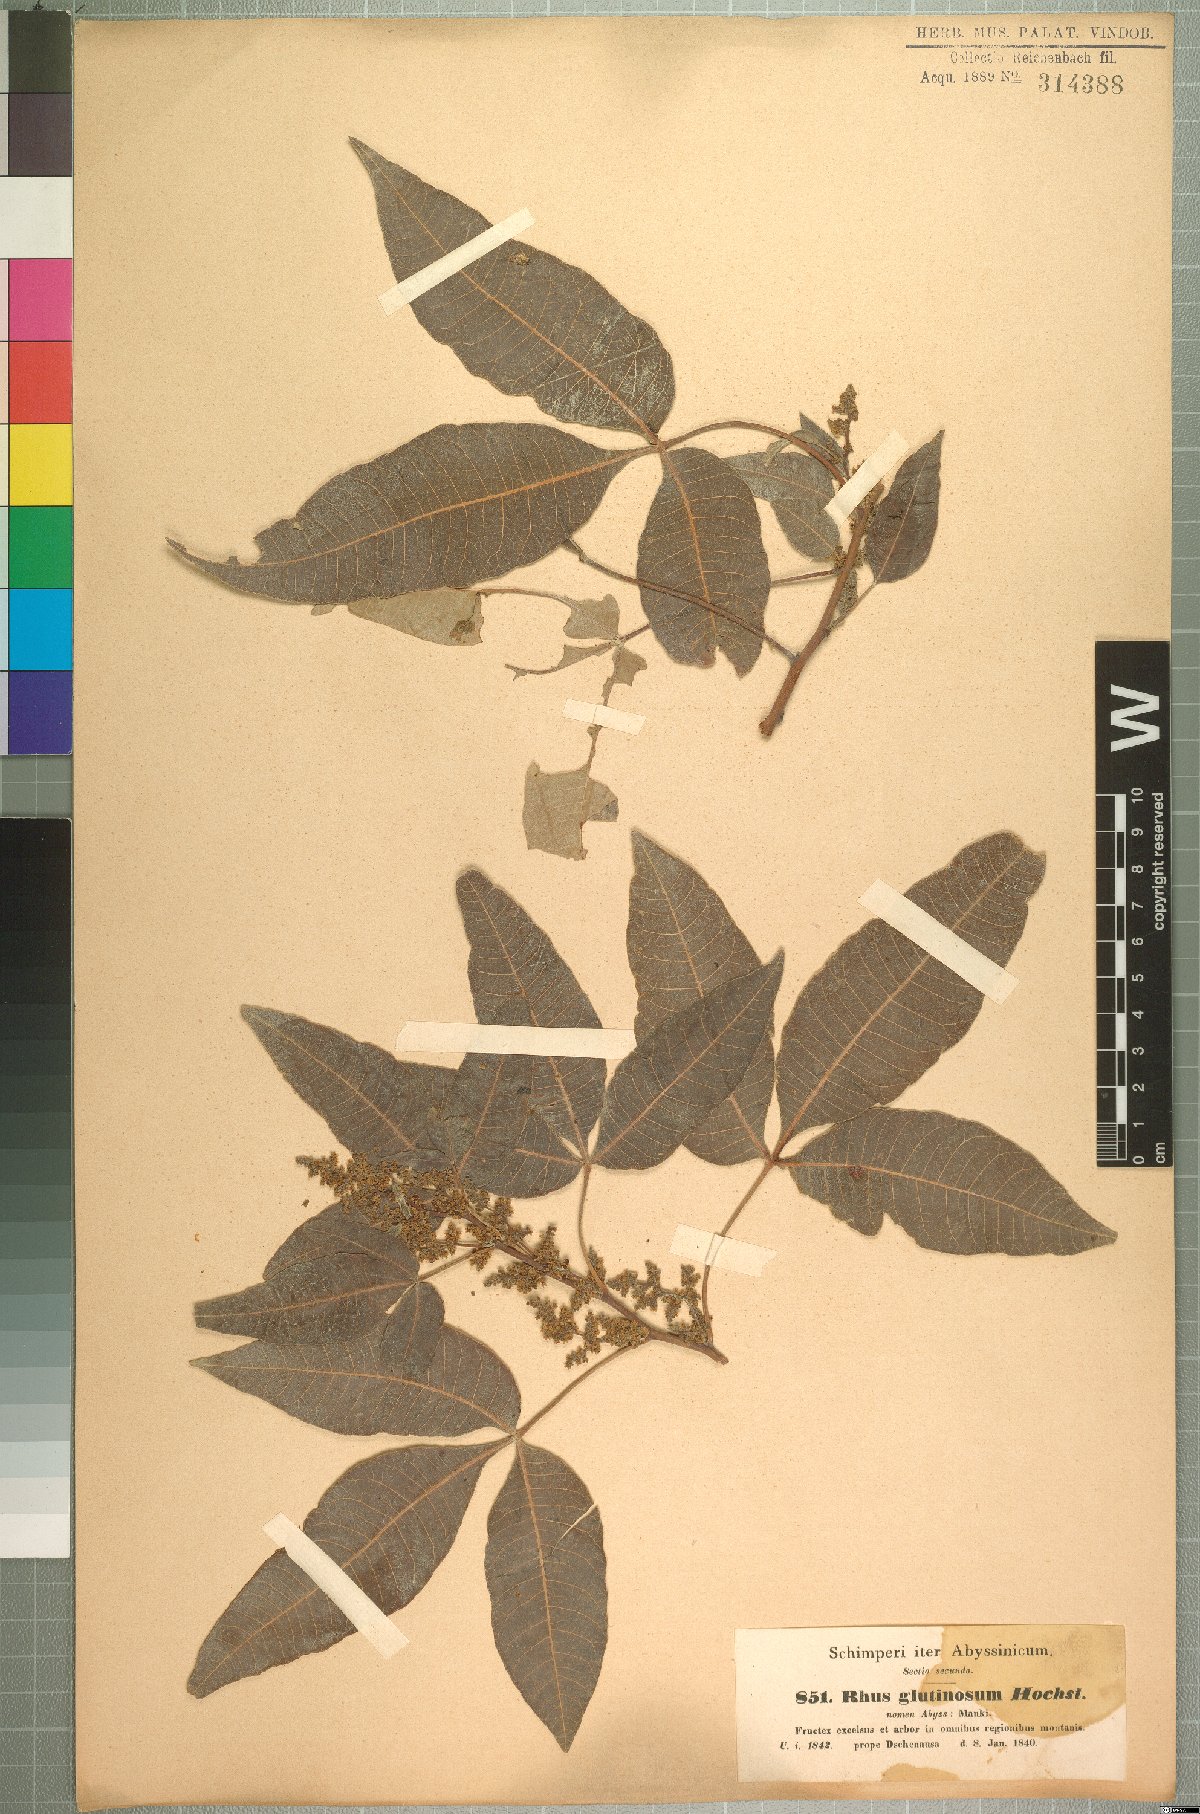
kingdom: Plantae
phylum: Tracheophyta
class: Magnoliopsida
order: Sapindales
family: Anacardiaceae
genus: Searsia
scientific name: Searsia glutinosa
